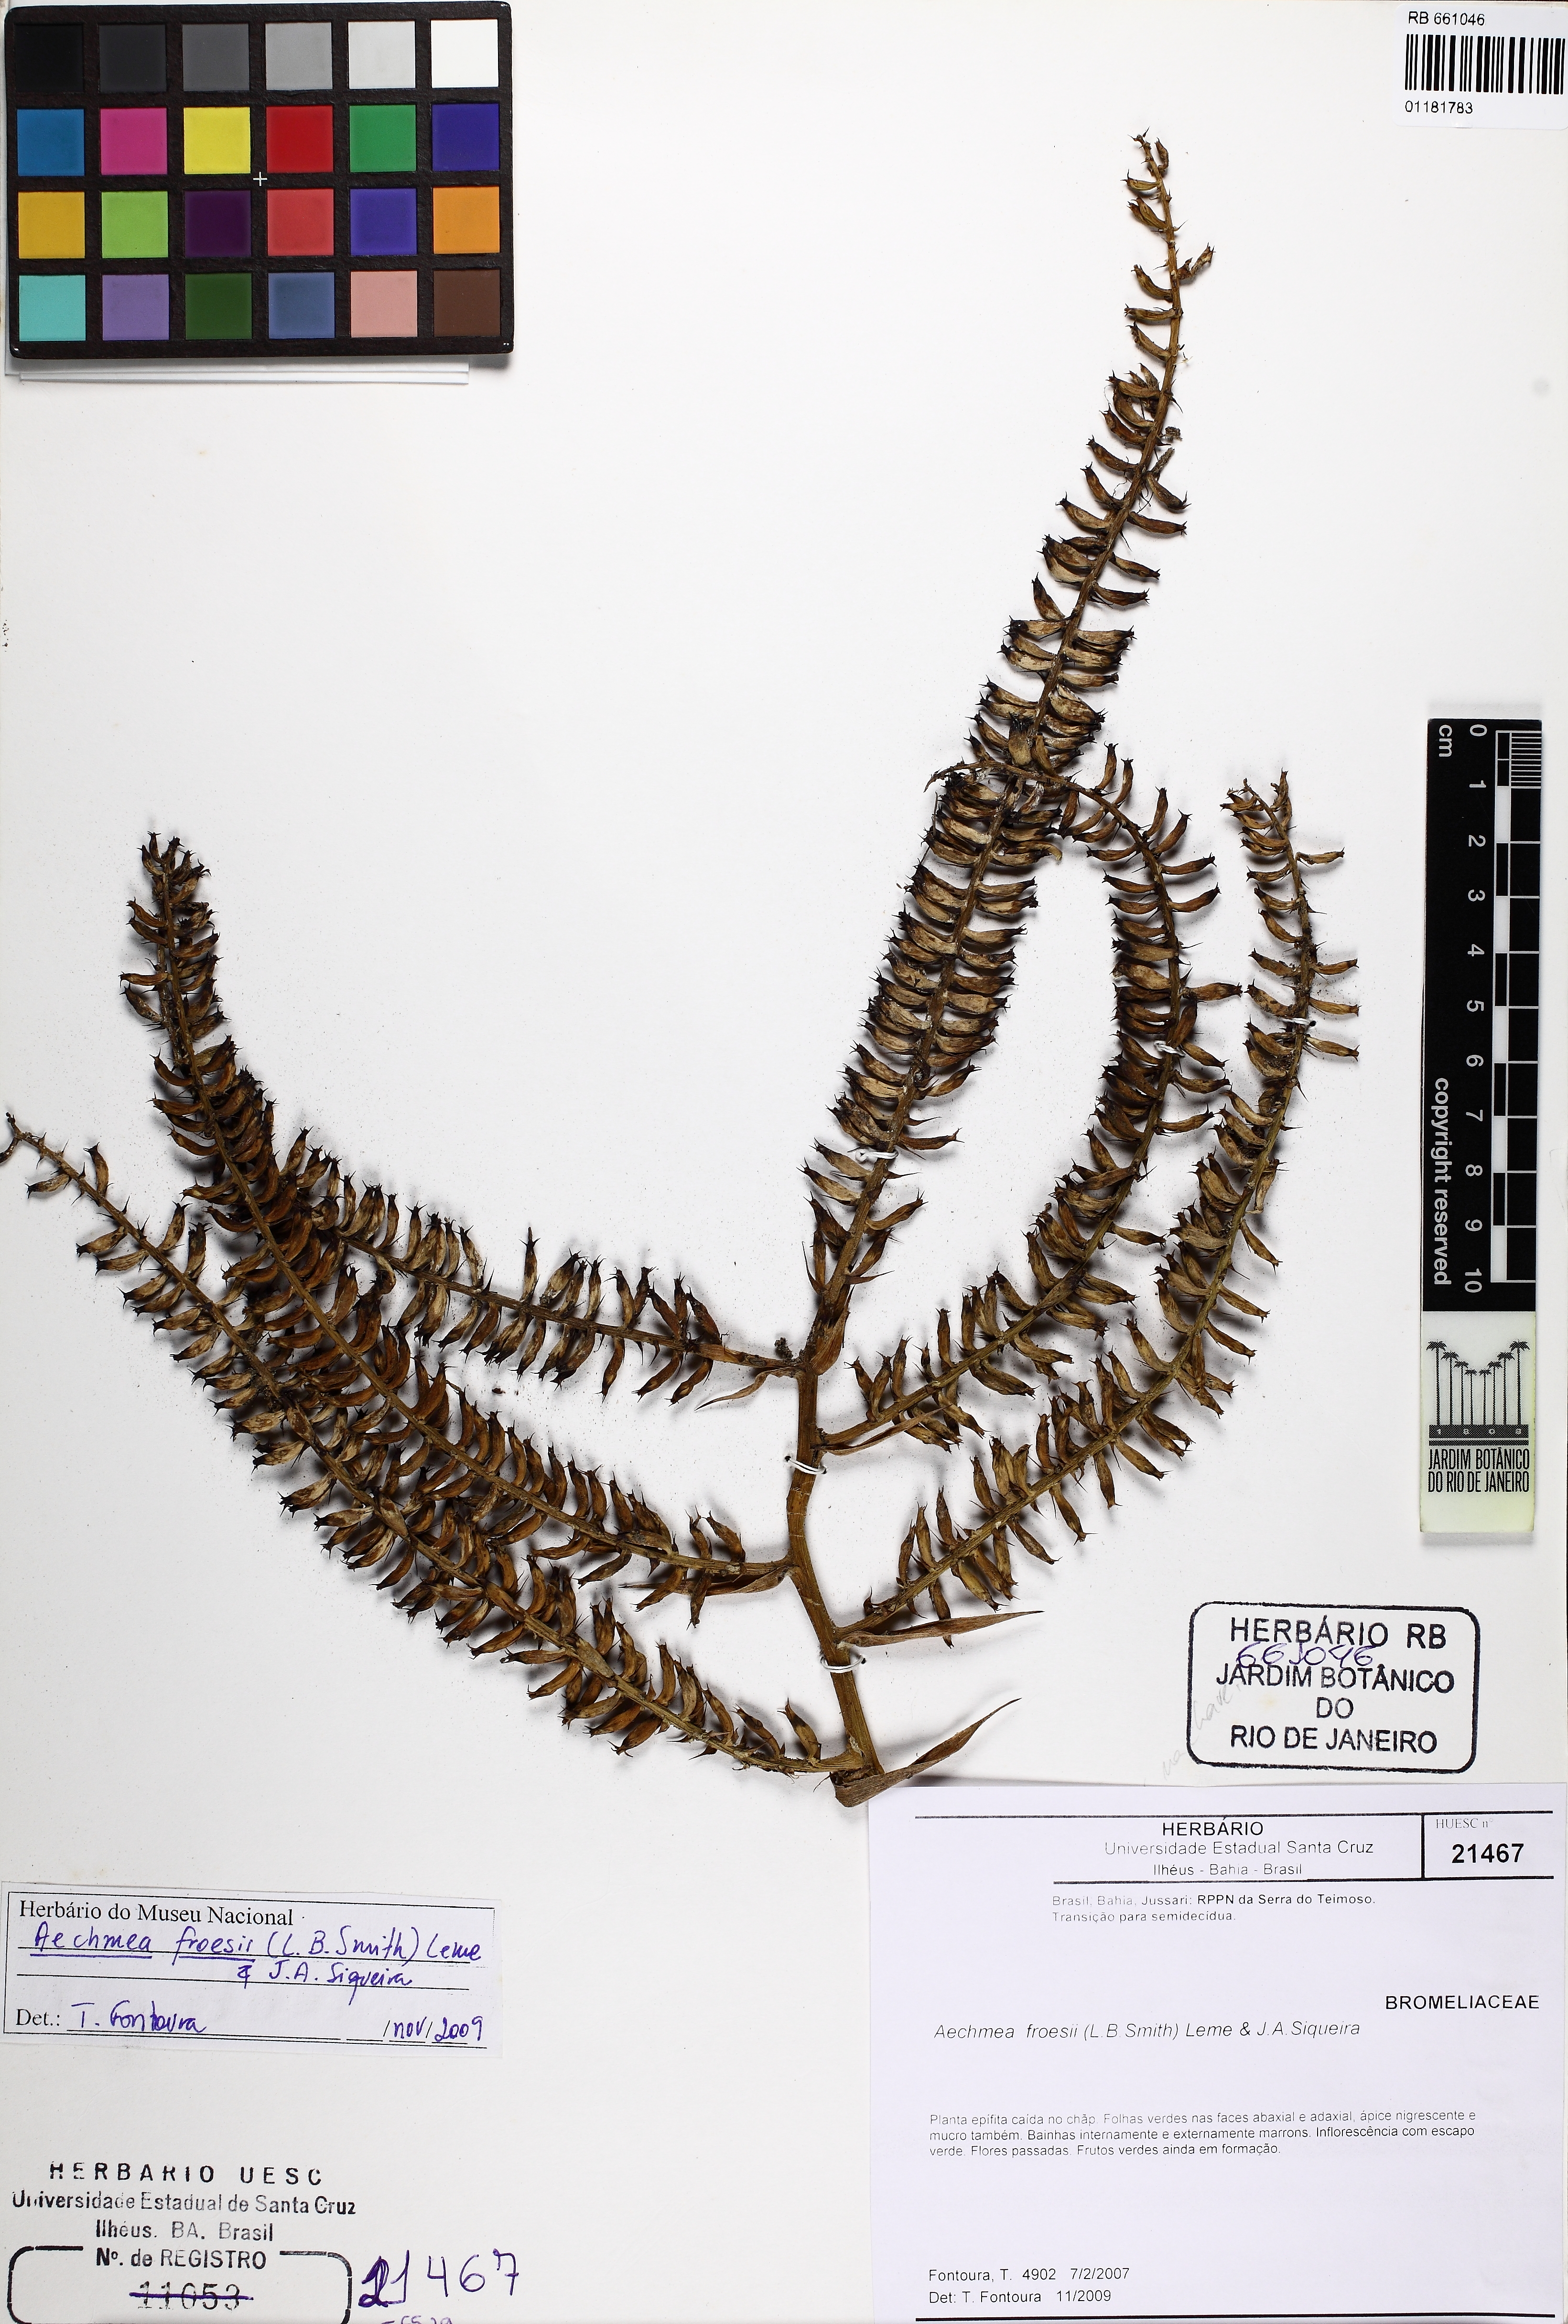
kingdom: Plantae
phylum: Tracheophyta
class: Liliopsida
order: Poales
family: Bromeliaceae
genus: Wittmackia
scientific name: Wittmackia froesii
